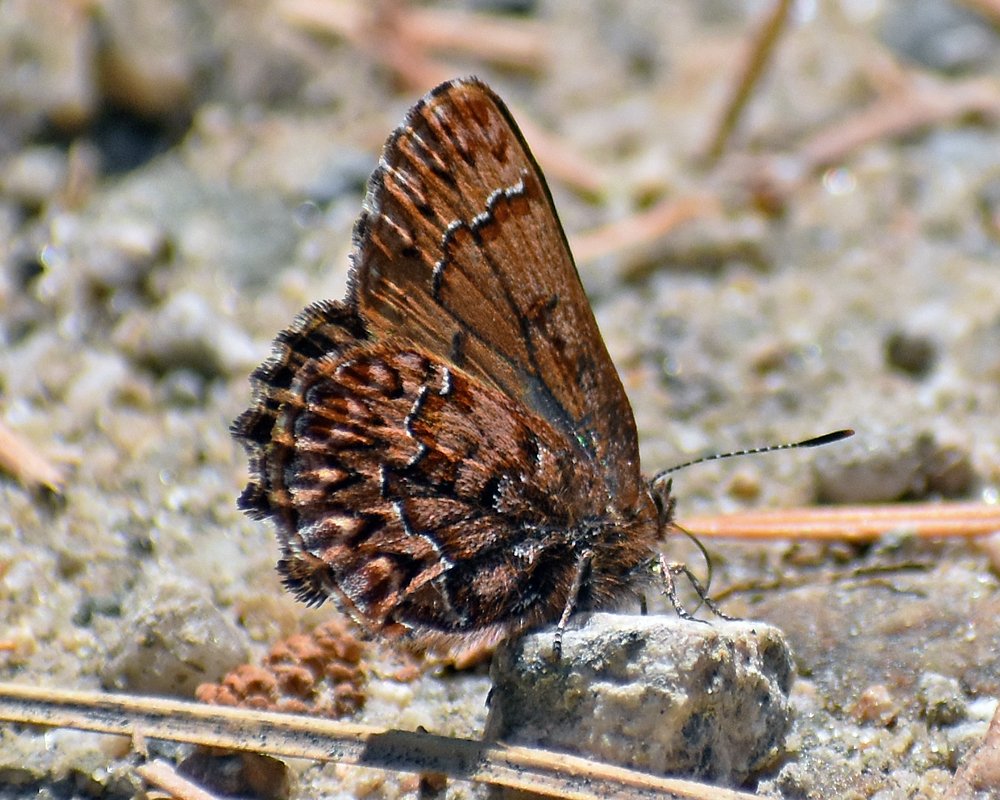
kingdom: Animalia
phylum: Arthropoda
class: Insecta
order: Lepidoptera
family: Lycaenidae
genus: Incisalia
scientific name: Incisalia eryphon
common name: Western Pine Elfin
